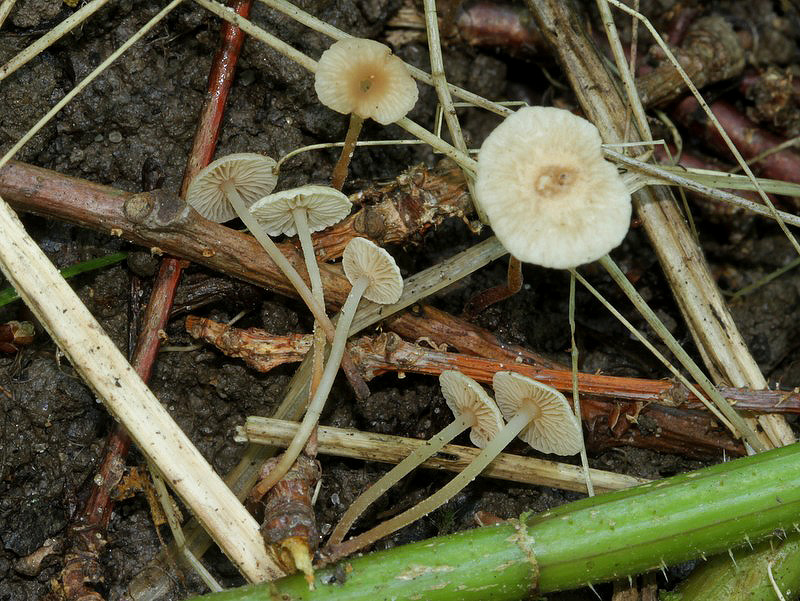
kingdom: Fungi
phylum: Basidiomycota
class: Agaricomycetes
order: Agaricales
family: Omphalotaceae
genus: Collybiopsis
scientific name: Collybiopsis vaillantii
